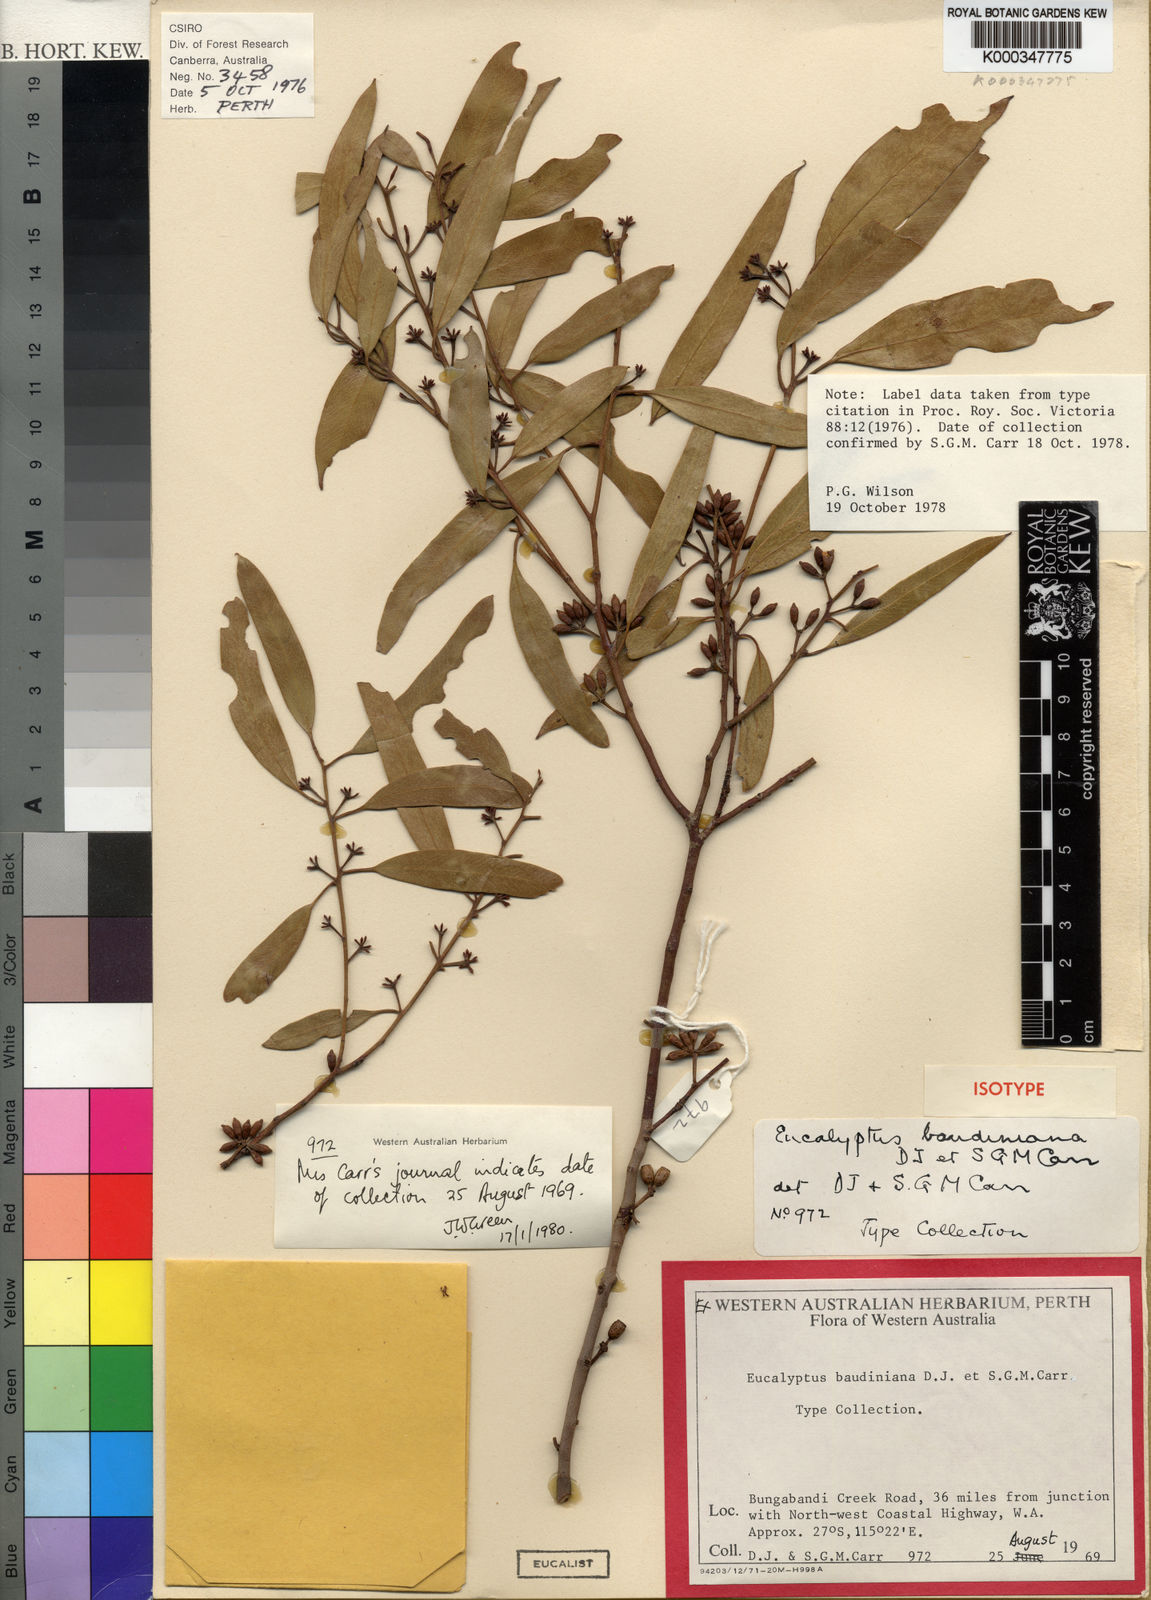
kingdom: Plantae
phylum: Tracheophyta
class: Magnoliopsida
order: Myrtales
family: Myrtaceae
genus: Eucalyptus
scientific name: Eucalyptus oraria
